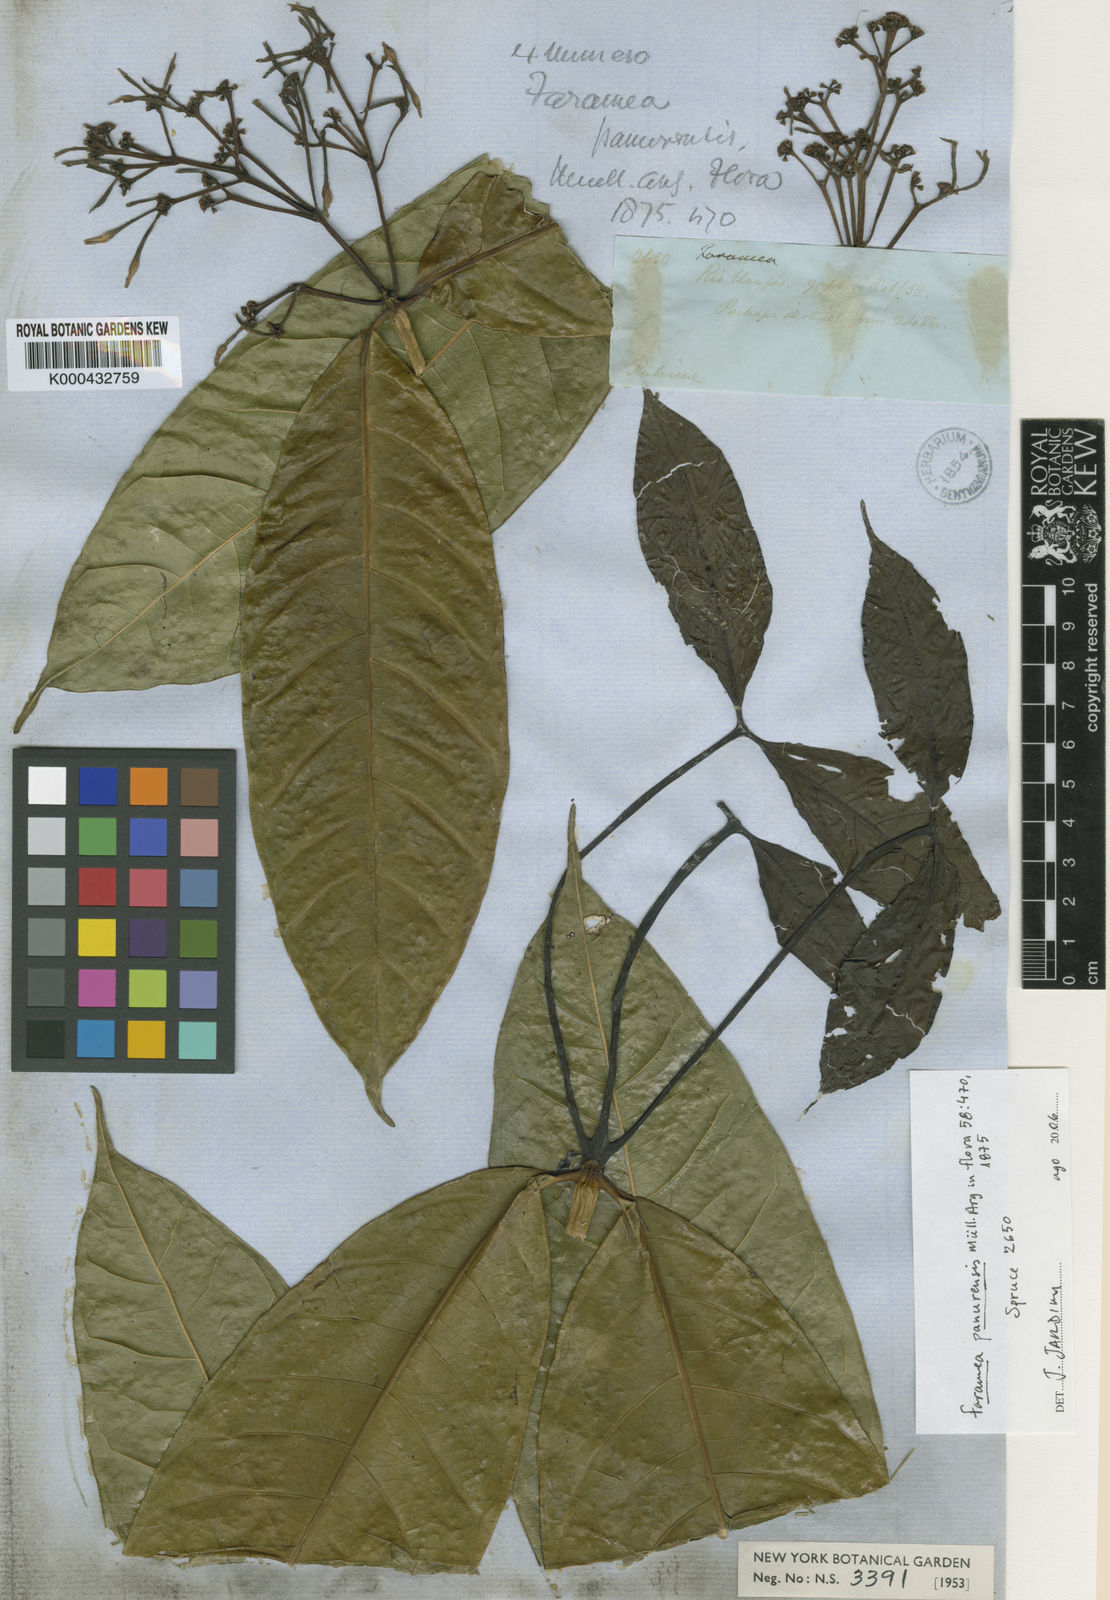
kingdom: Plantae
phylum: Tracheophyta
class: Magnoliopsida
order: Gentianales
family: Rubiaceae
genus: Faramea
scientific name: Faramea
